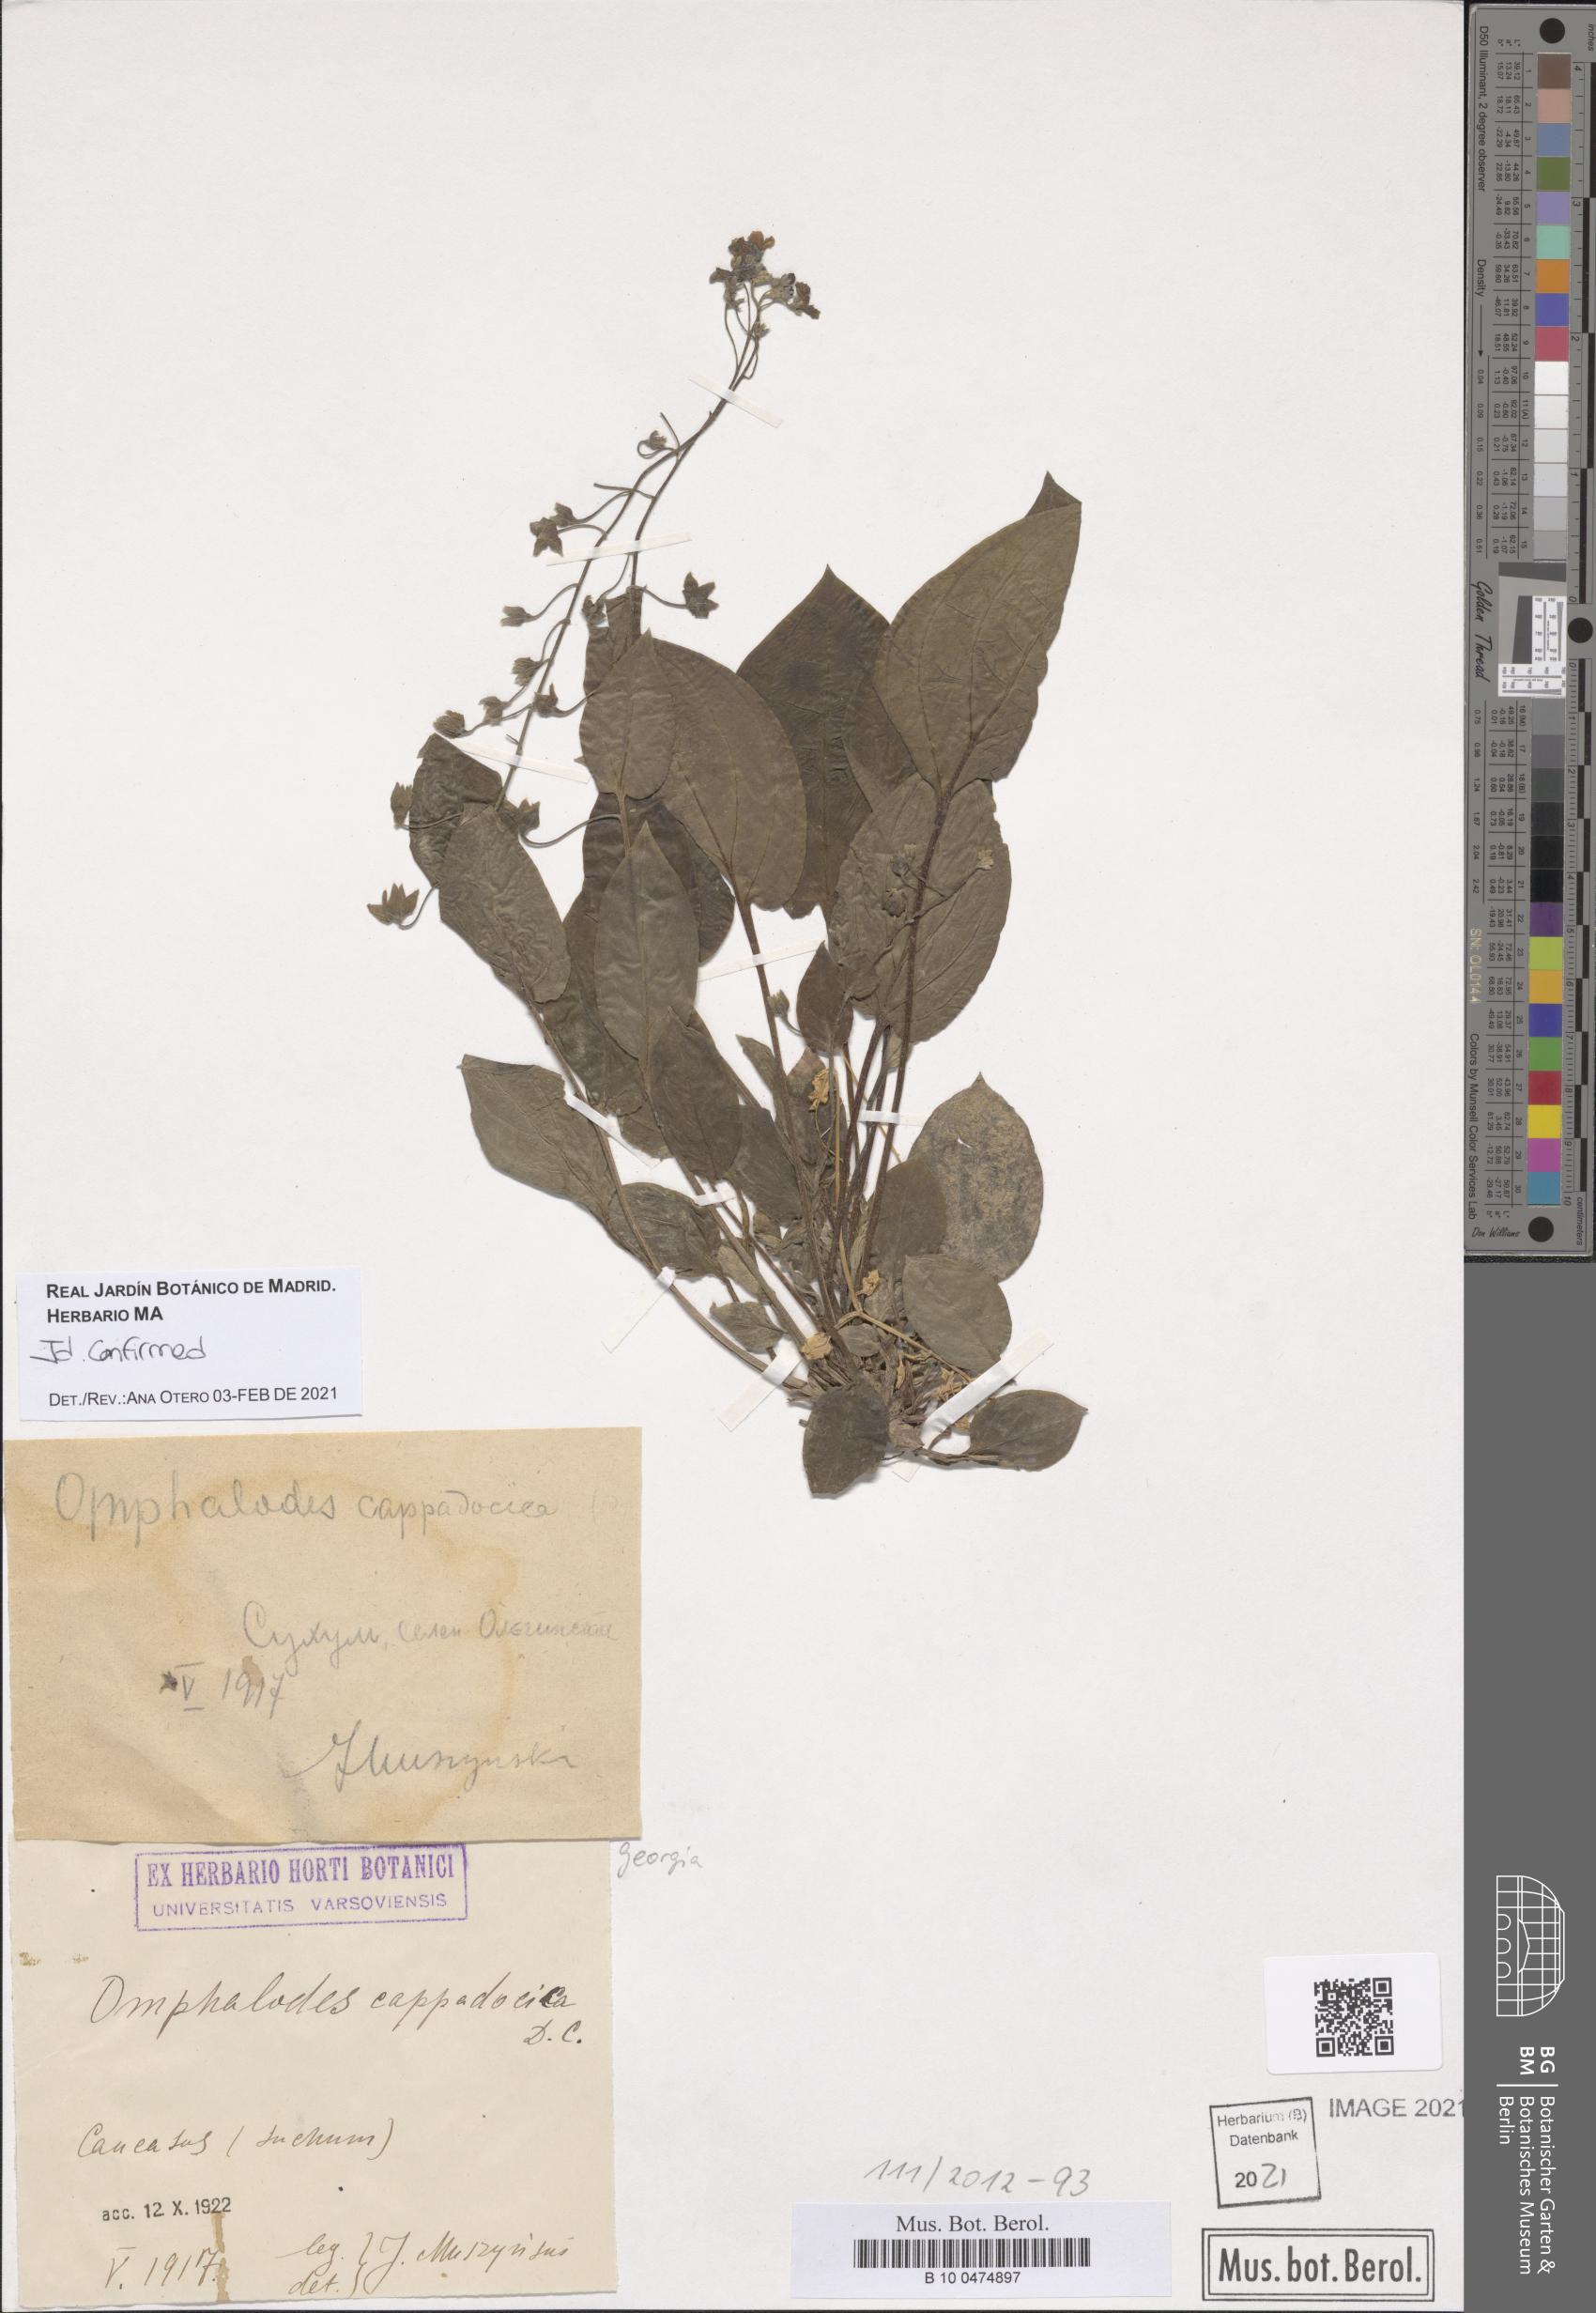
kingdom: Plantae
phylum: Tracheophyta
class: Magnoliopsida
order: Boraginales
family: Boraginaceae
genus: Omphalodes
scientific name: Omphalodes cappadocica
